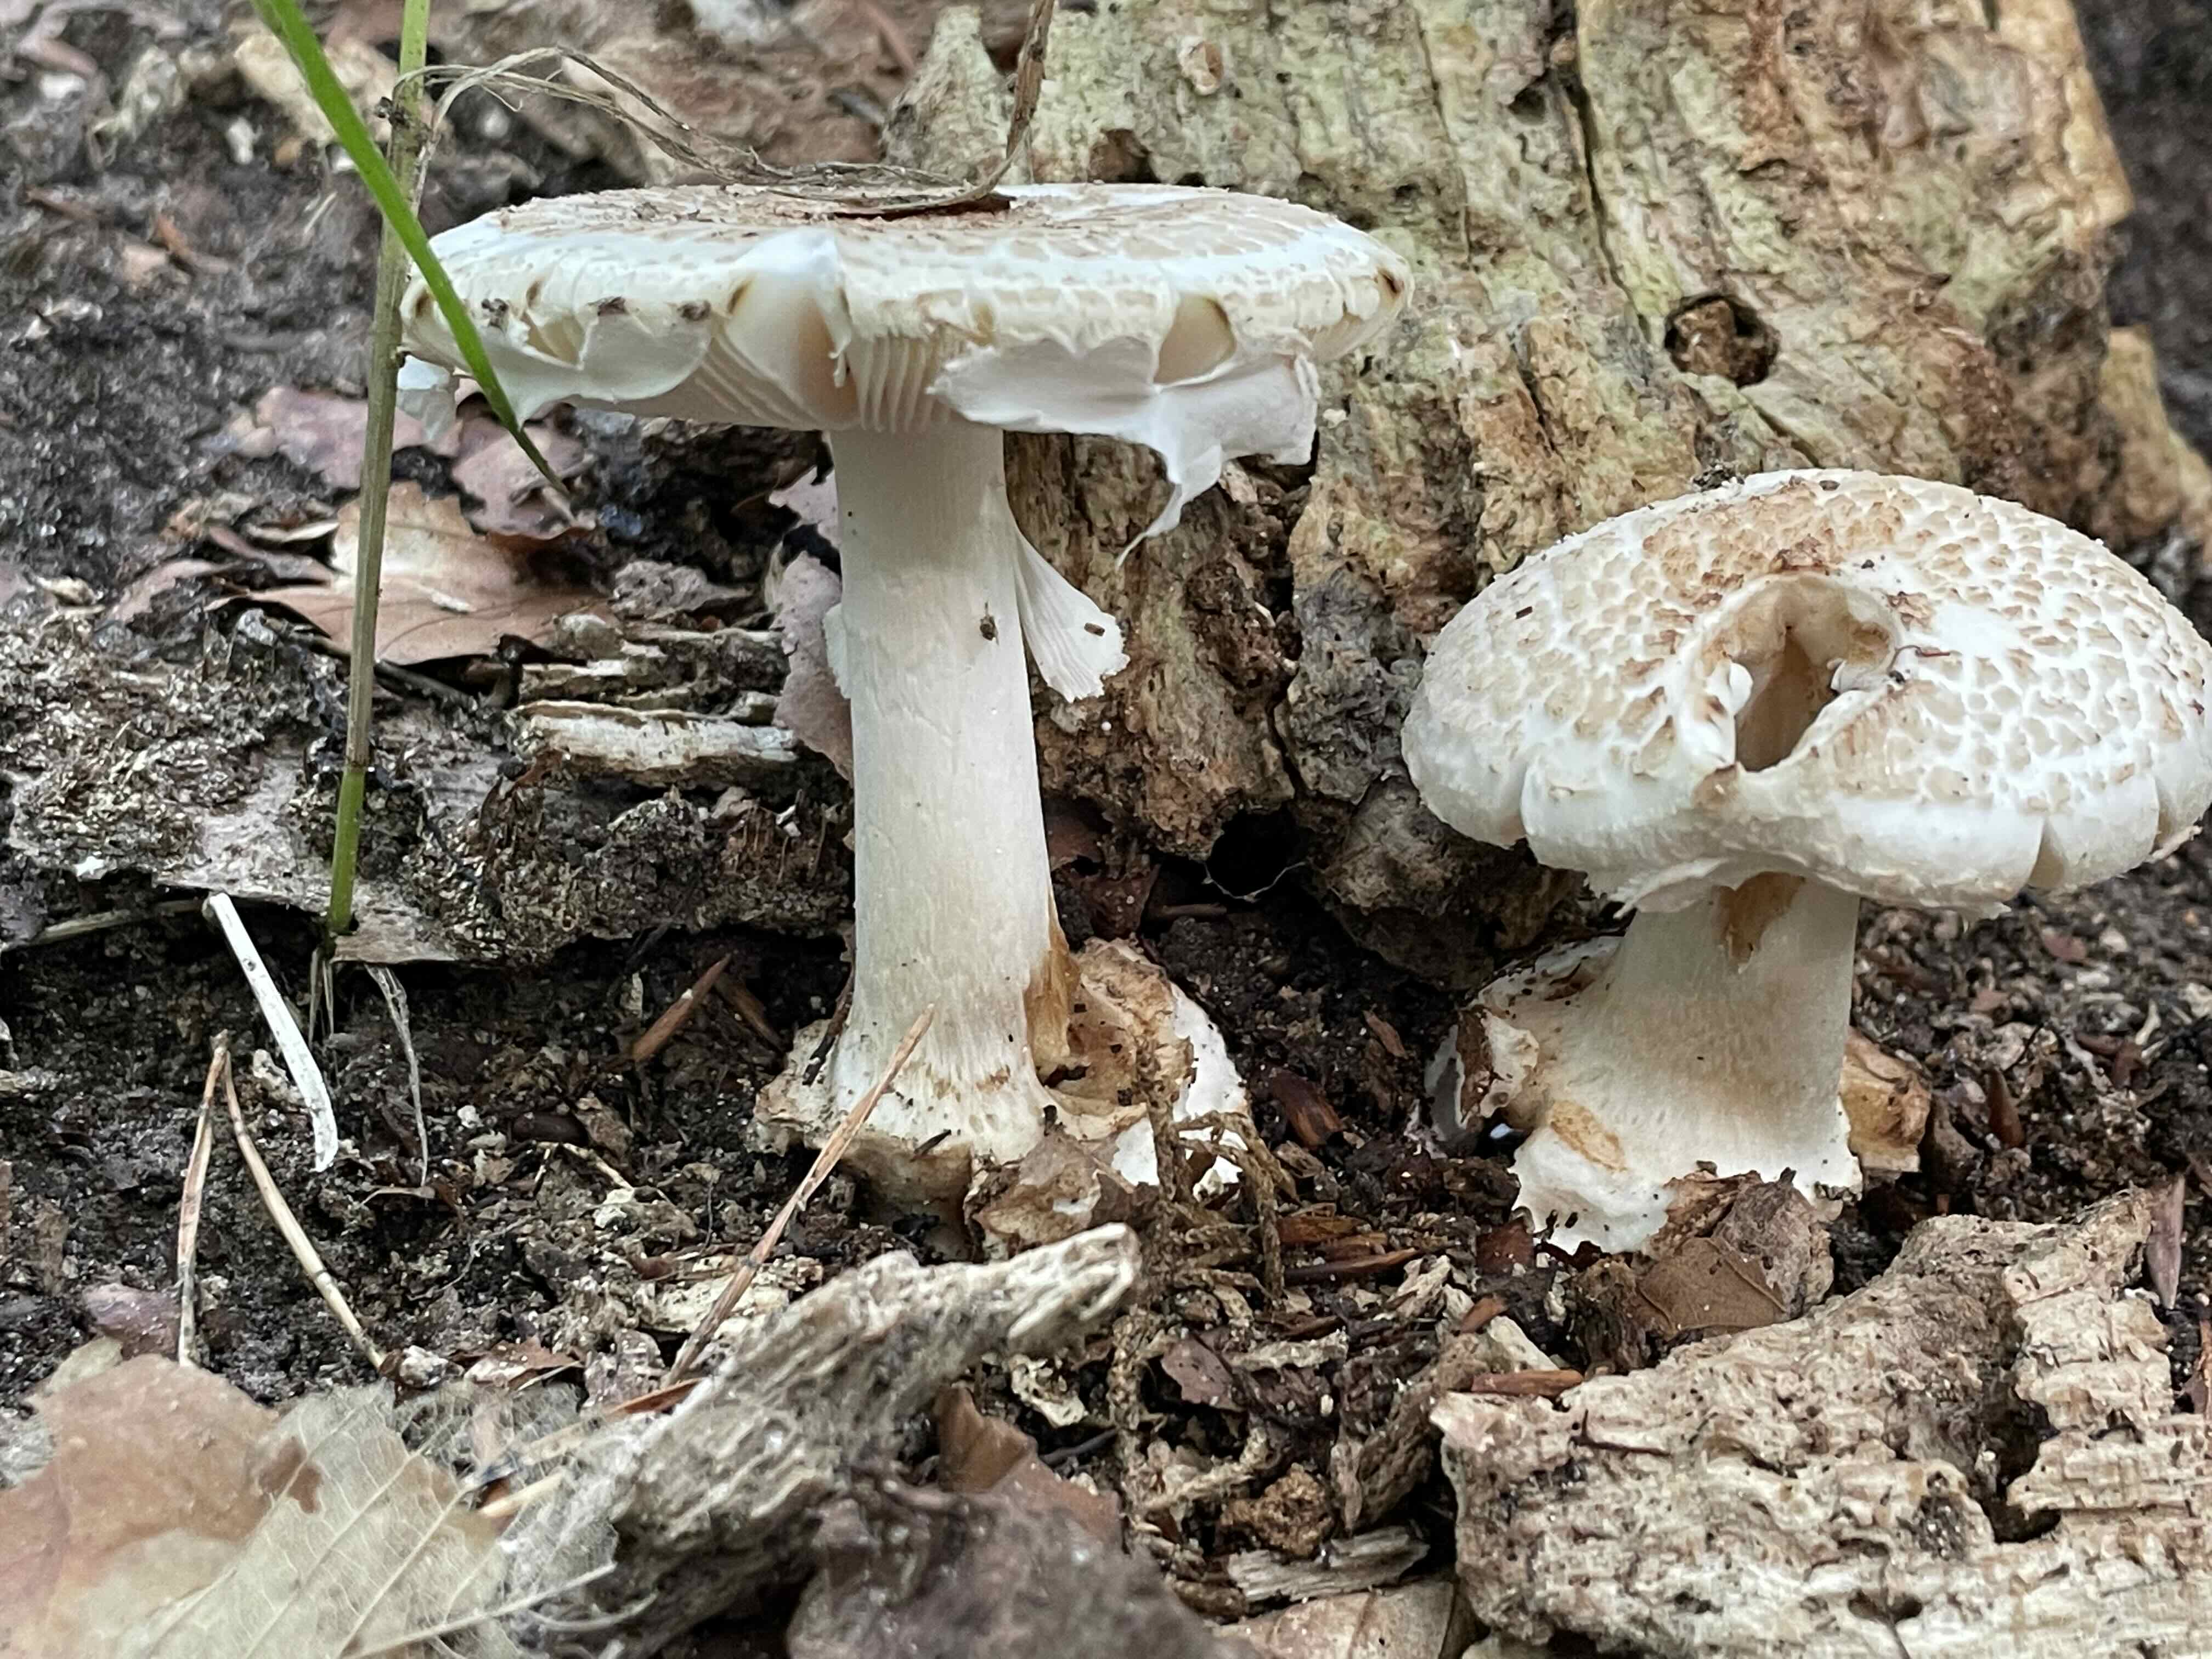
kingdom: Fungi
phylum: Basidiomycota
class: Agaricomycetes
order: Agaricales
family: Amanitaceae
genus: Amanita
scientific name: Amanita citrina
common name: False death-cap
